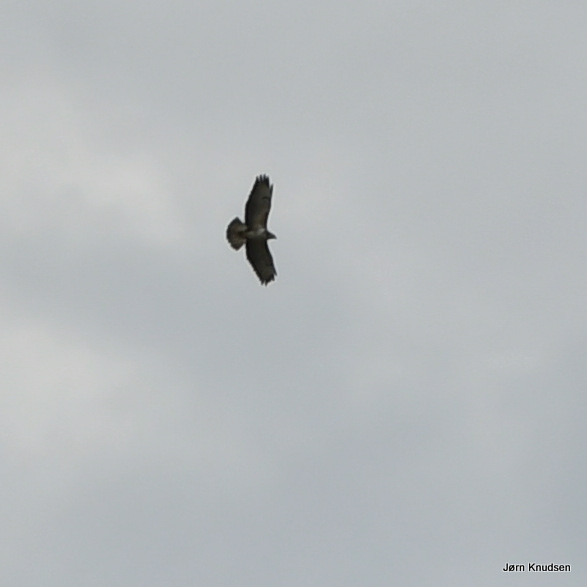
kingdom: Animalia
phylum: Chordata
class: Aves
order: Accipitriformes
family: Accipitridae
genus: Buteo
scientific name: Buteo buteo
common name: Musvåge
